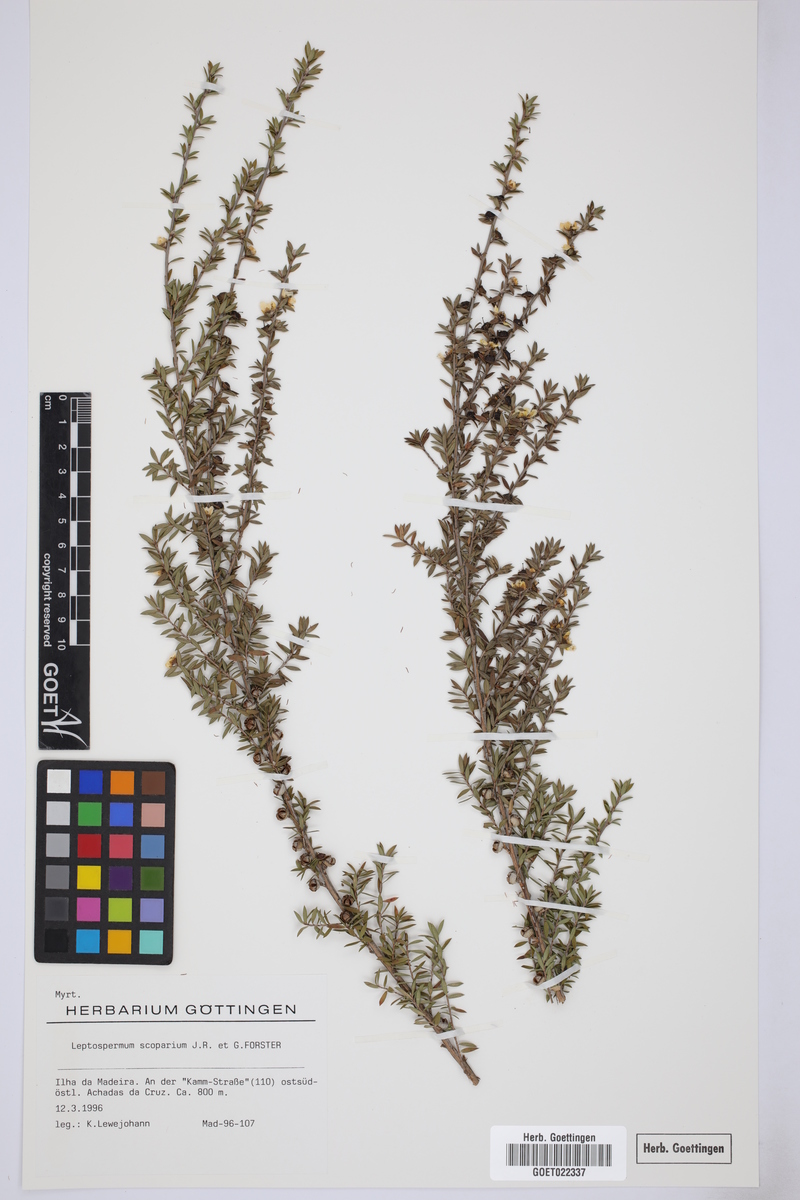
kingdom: Plantae
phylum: Tracheophyta
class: Magnoliopsida
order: Myrtales
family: Myrtaceae
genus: Leptospermum
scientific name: Leptospermum scoparium
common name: Broom tea-tree
